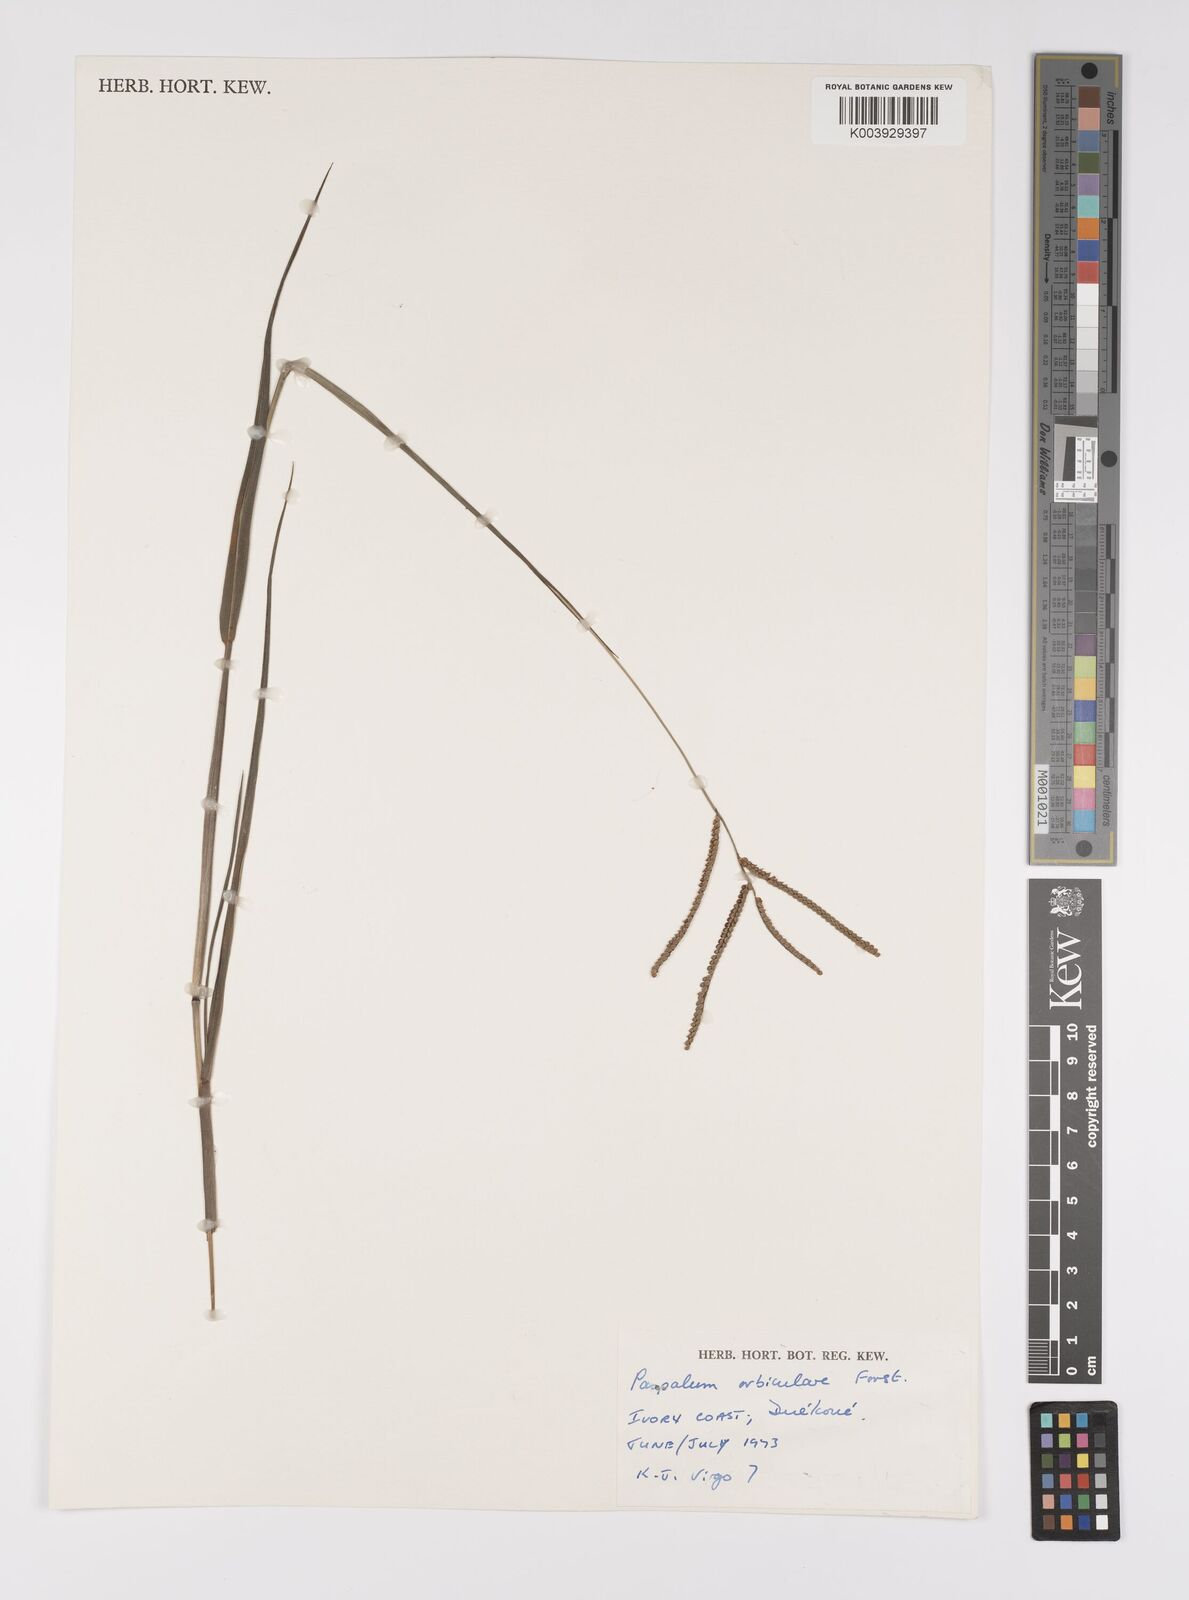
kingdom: Plantae
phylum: Tracheophyta
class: Liliopsida
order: Poales
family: Poaceae
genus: Paspalum
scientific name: Paspalum scrobiculatum
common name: Kodo millet
